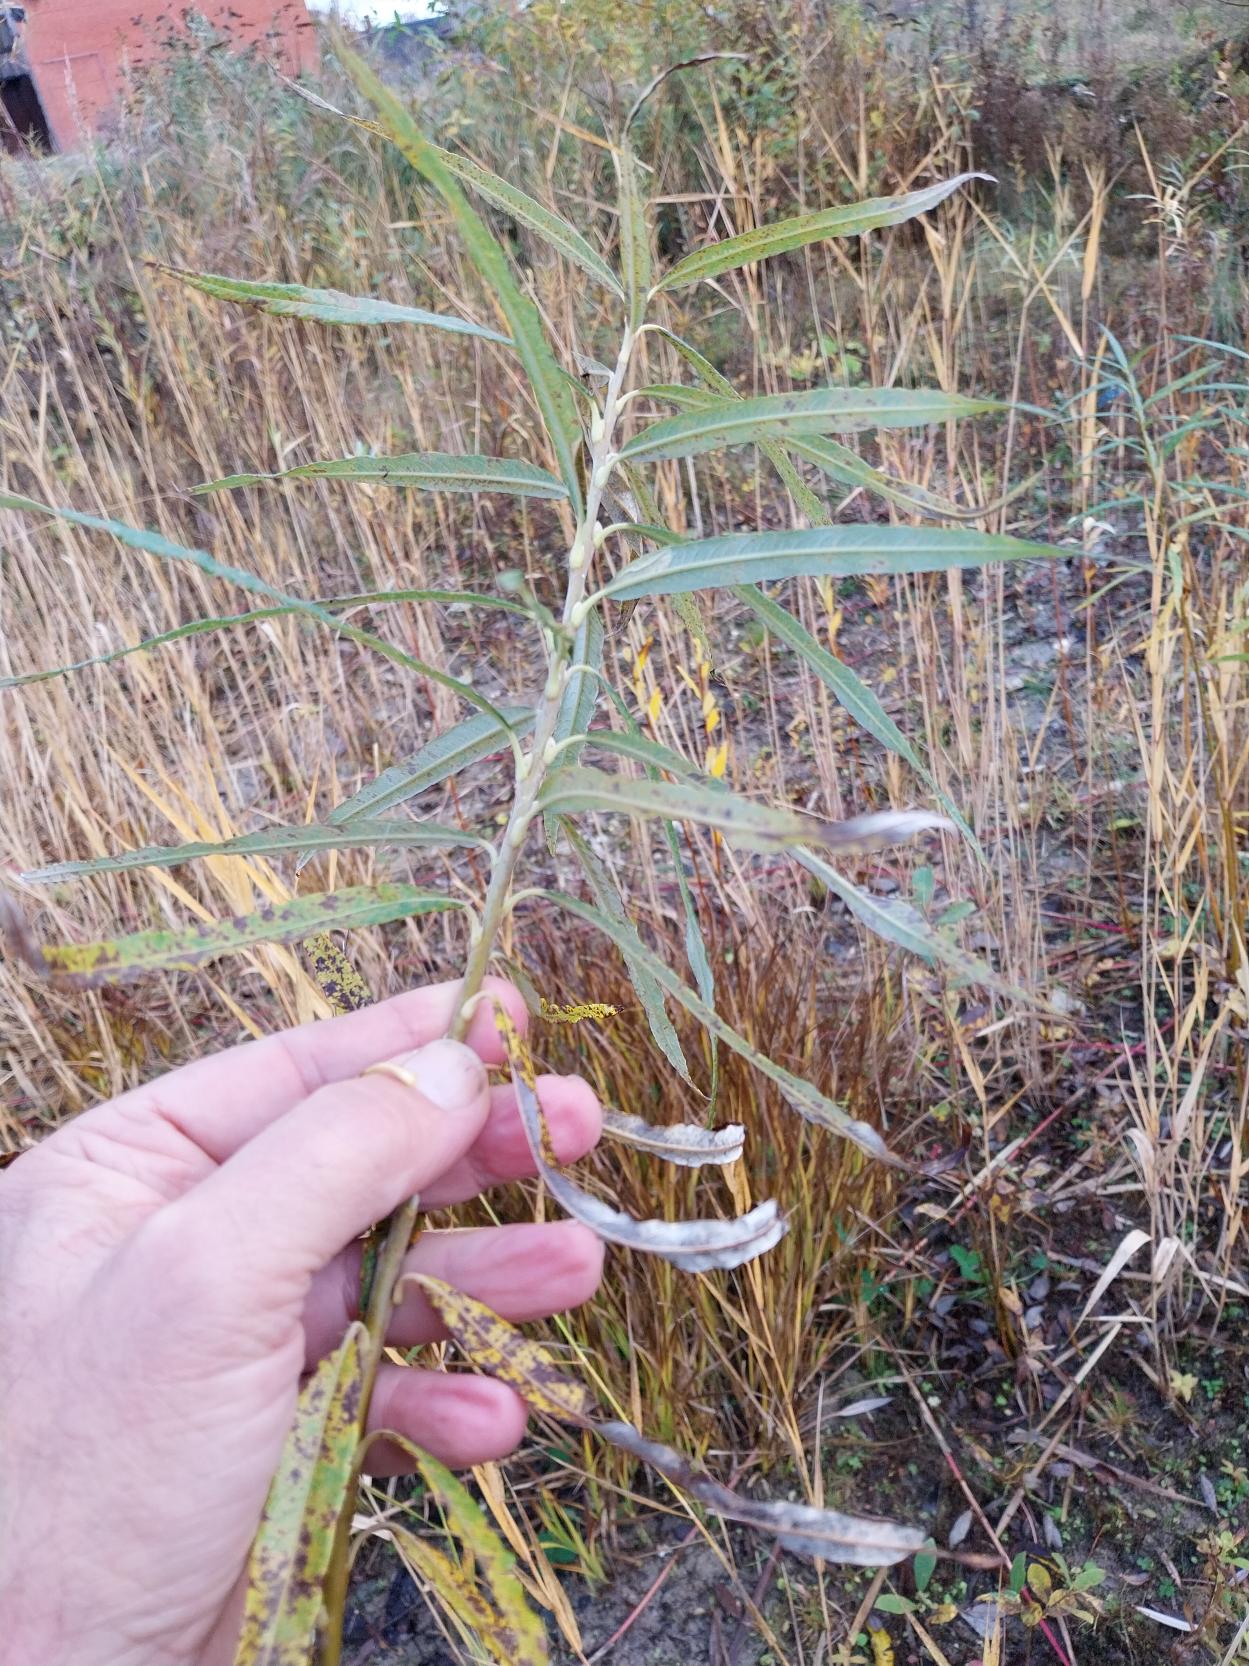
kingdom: Plantae
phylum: Tracheophyta
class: Magnoliopsida
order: Malpighiales
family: Salicaceae
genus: Salix
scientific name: Salix viminalis
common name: Bånd-pil
